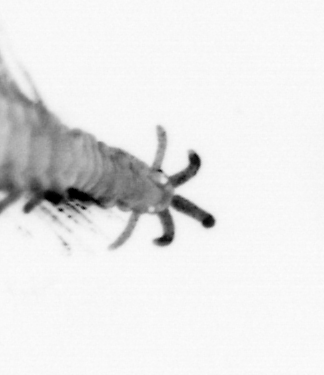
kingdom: Animalia
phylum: Annelida
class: Polychaeta
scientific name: Polychaeta
